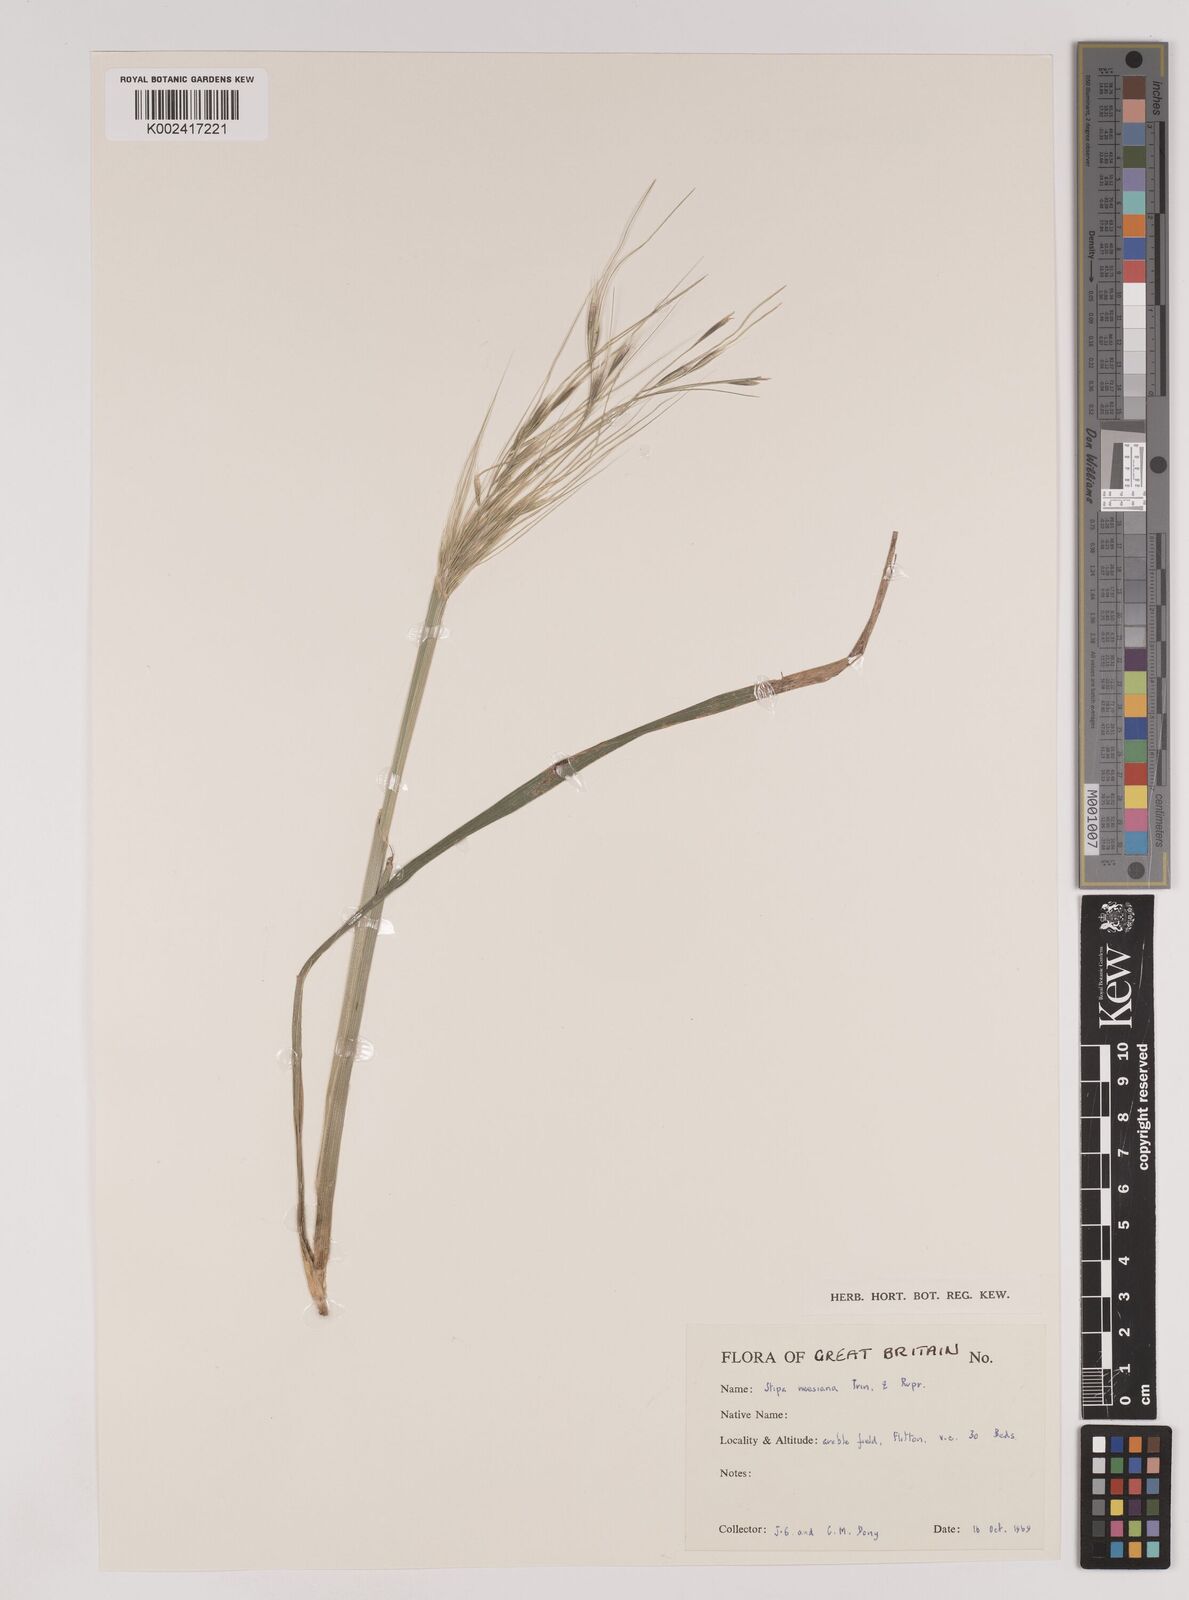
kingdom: Plantae
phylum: Tracheophyta
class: Liliopsida
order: Poales
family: Poaceae
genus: Nassella
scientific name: Nassella neesiana
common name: American needle-grass
